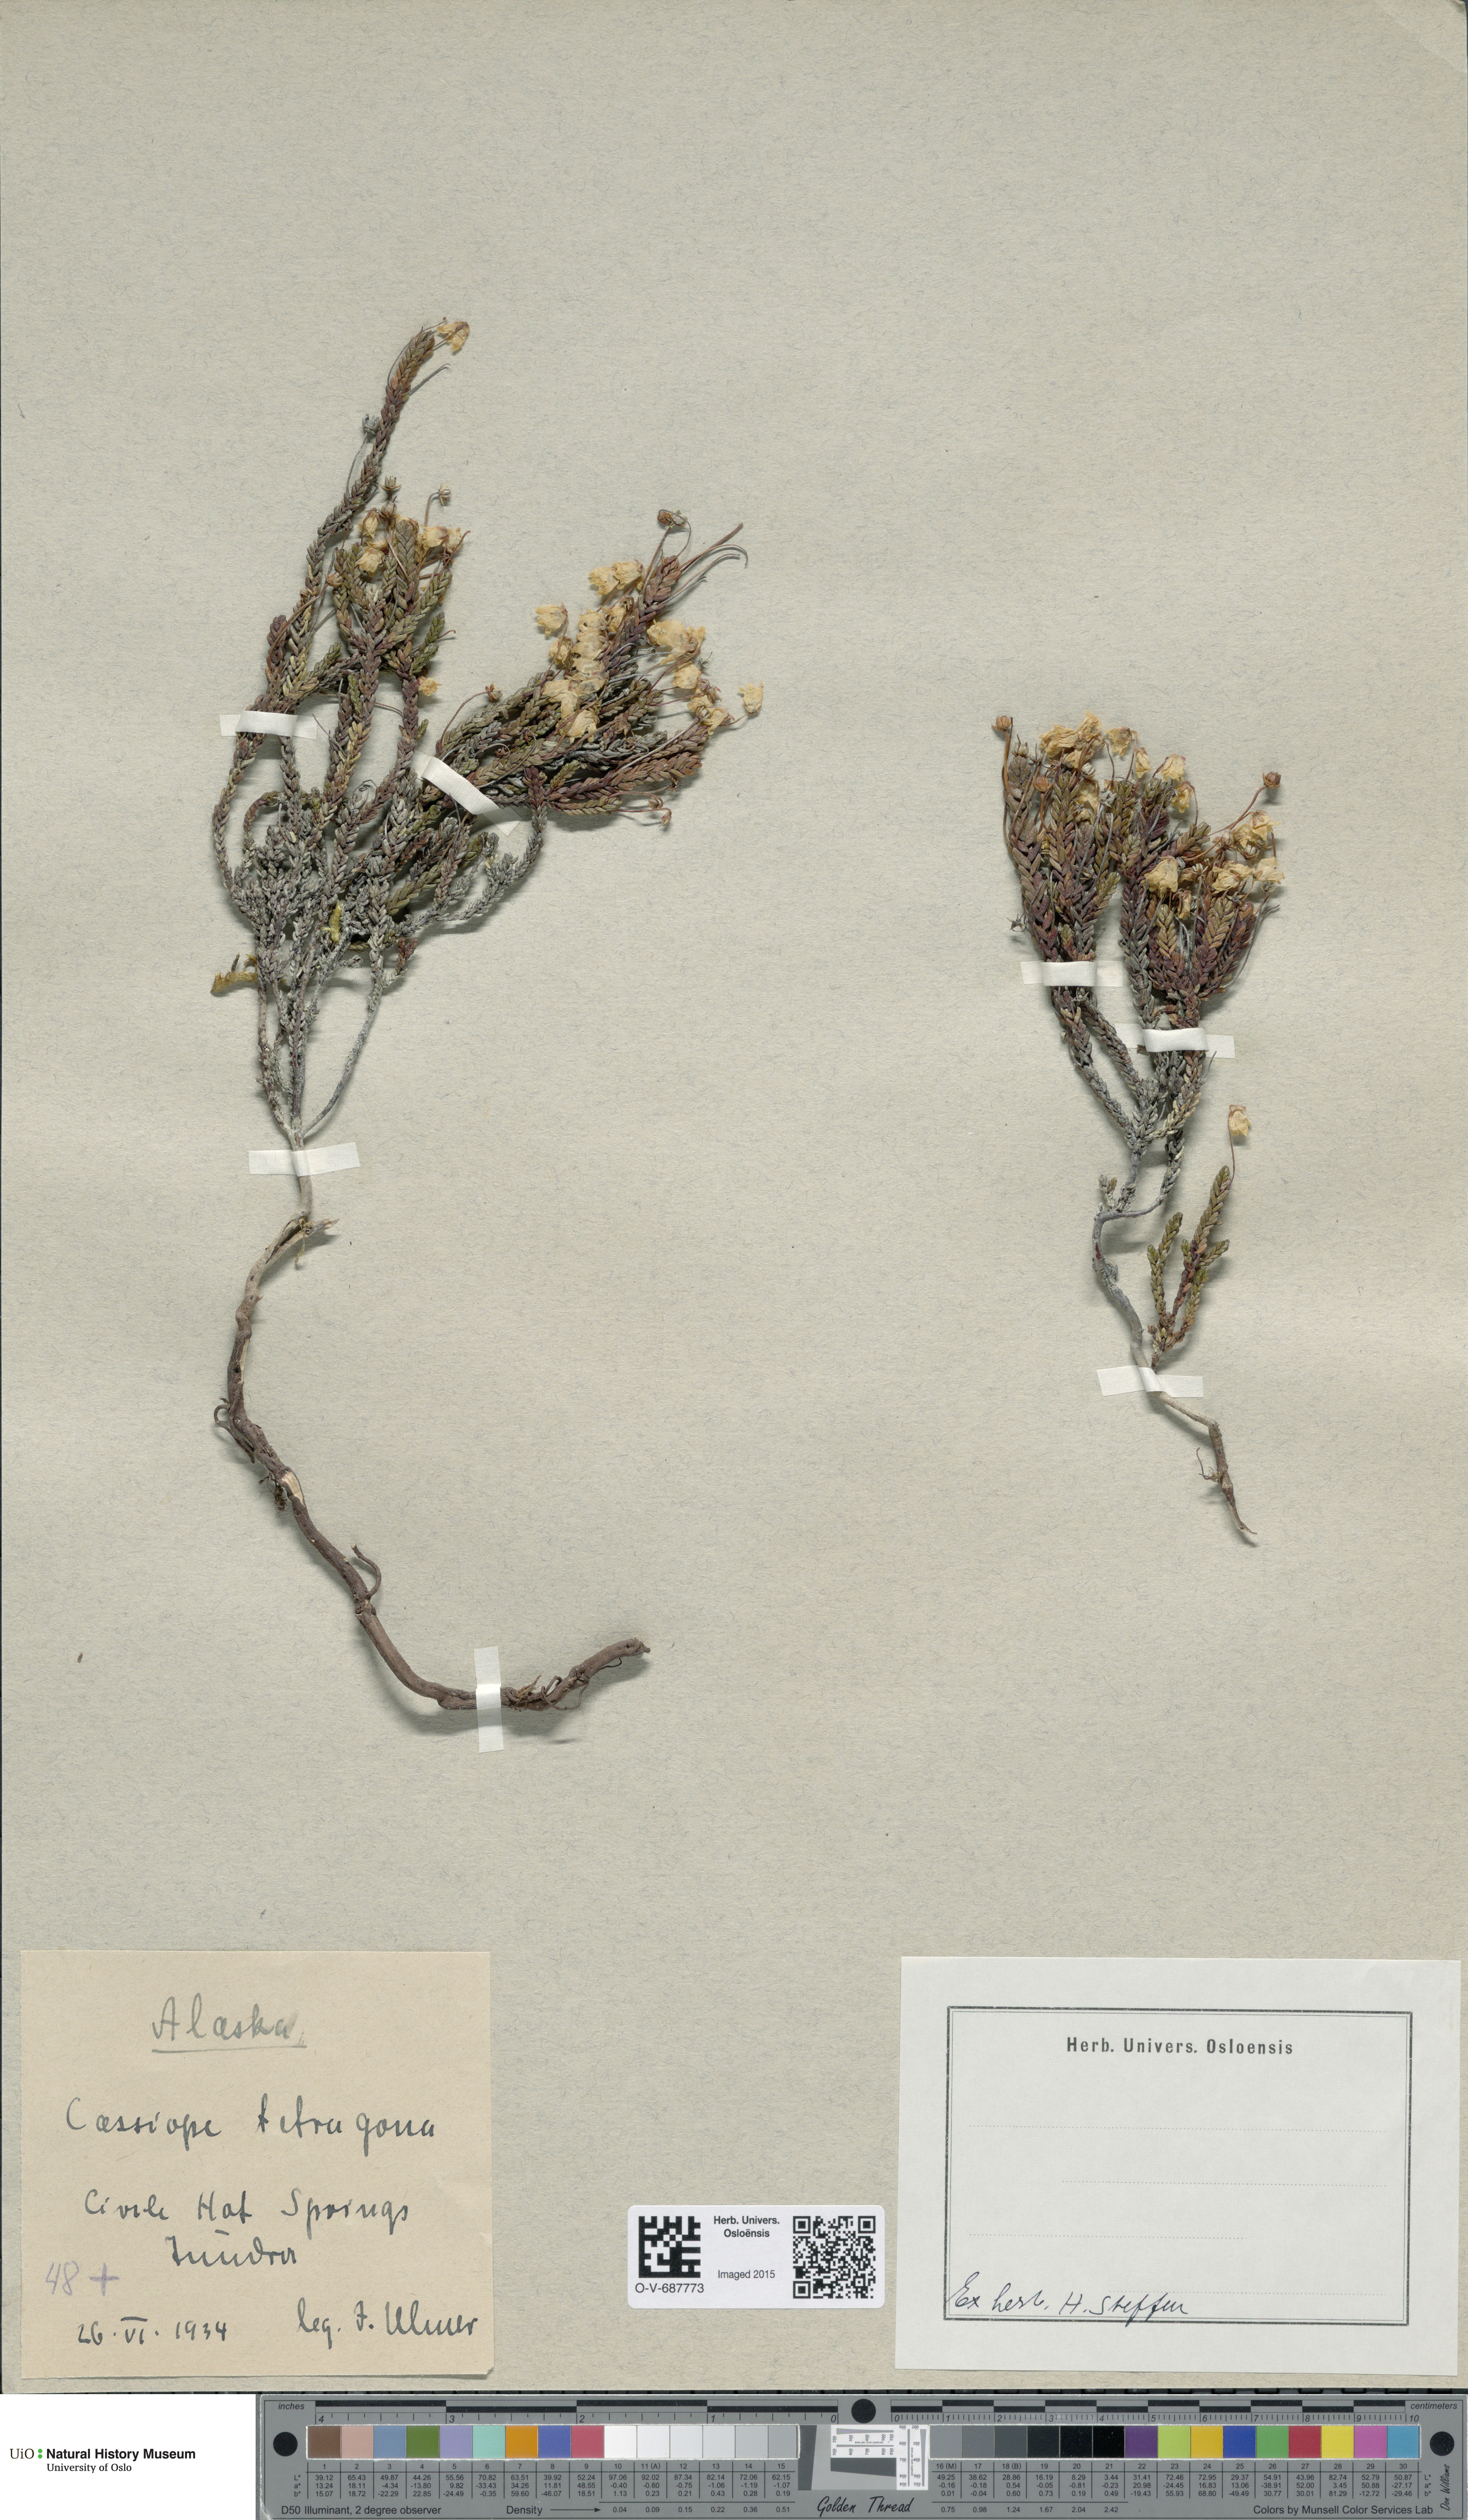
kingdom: Plantae
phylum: Tracheophyta
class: Magnoliopsida
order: Ericales
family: Ericaceae
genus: Cassiope
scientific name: Cassiope tetragona
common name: Arctic bell heather
